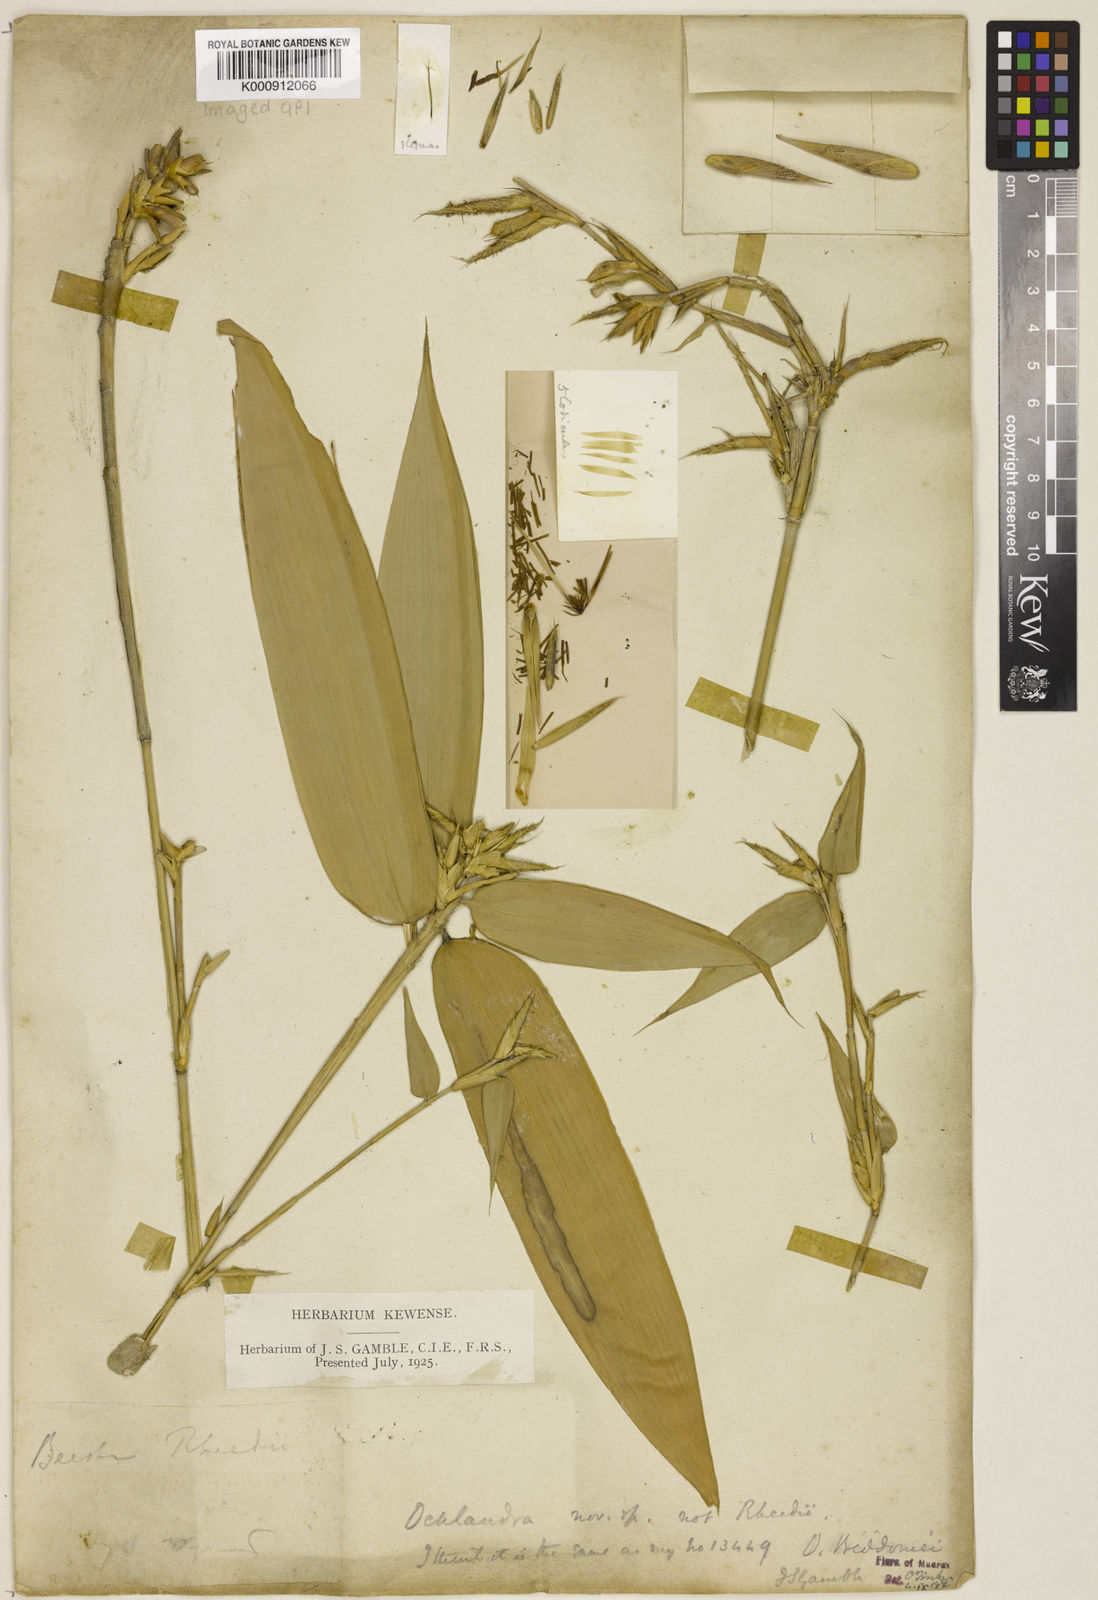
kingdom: Plantae
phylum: Tracheophyta
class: Liliopsida
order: Poales
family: Poaceae
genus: Ochlandra
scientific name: Ochlandra beddomei
